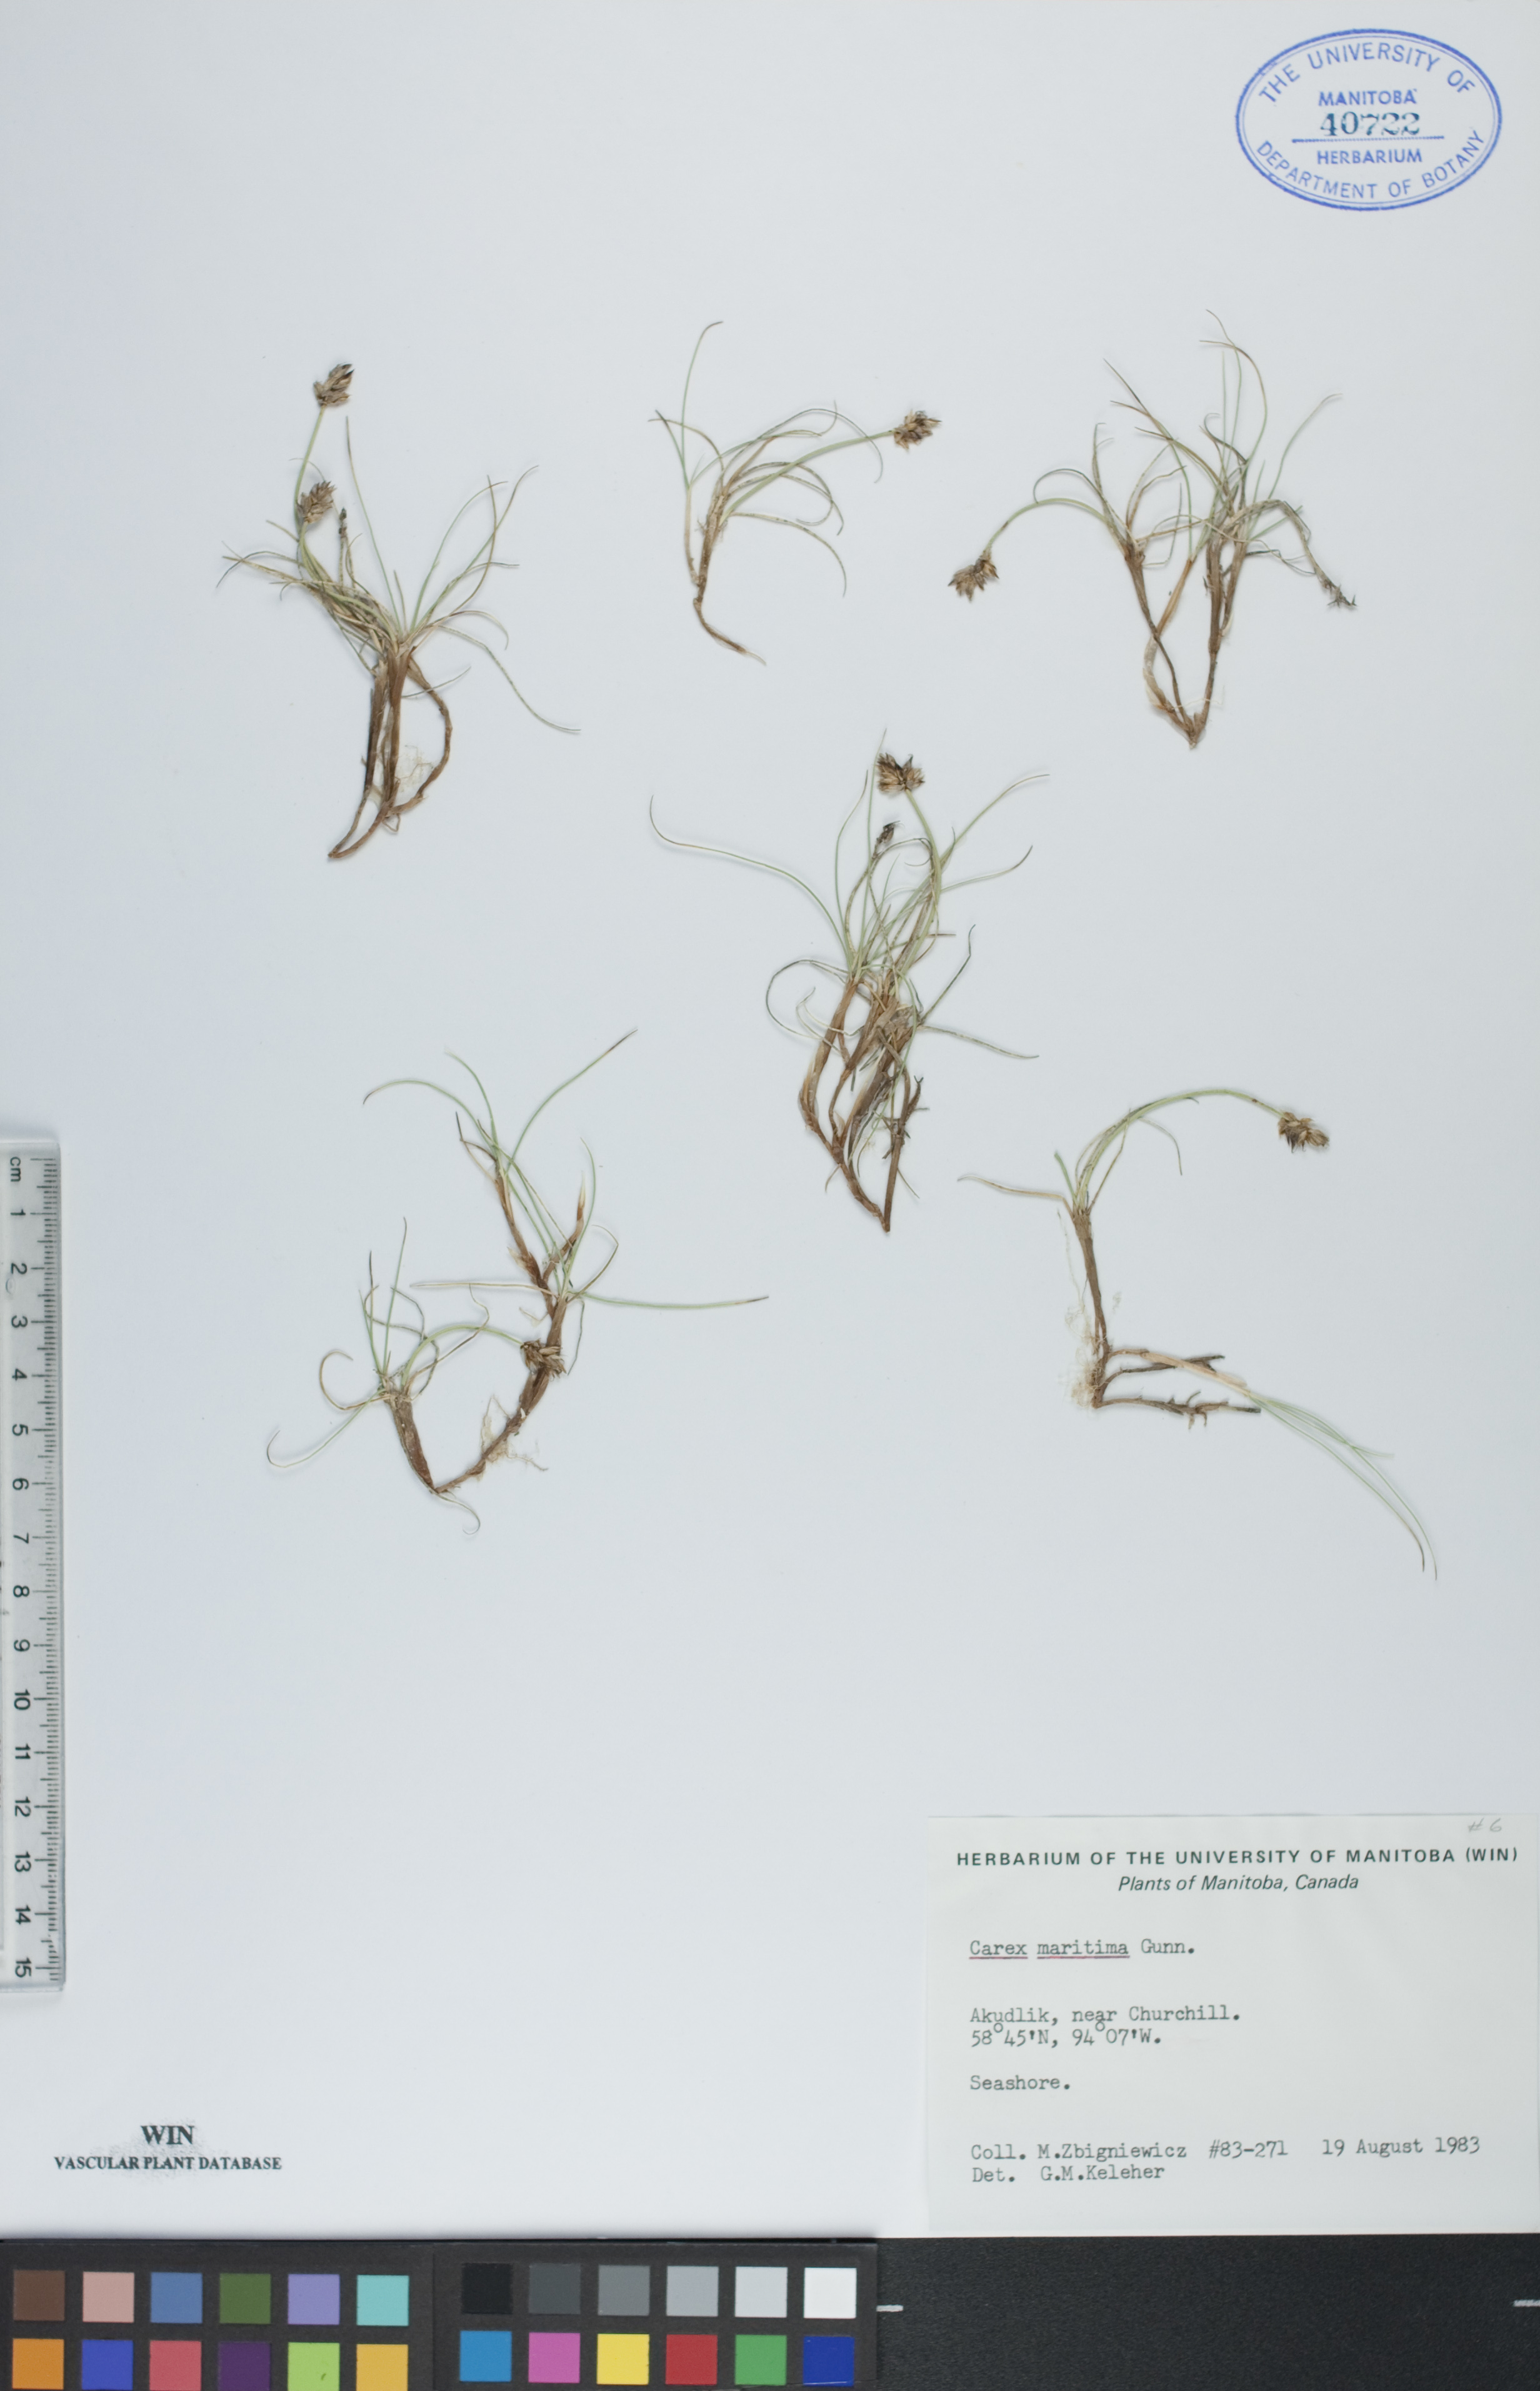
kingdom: Plantae
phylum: Tracheophyta
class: Liliopsida
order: Poales
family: Cyperaceae
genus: Carex
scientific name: Carex maritima
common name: Curved sedge
